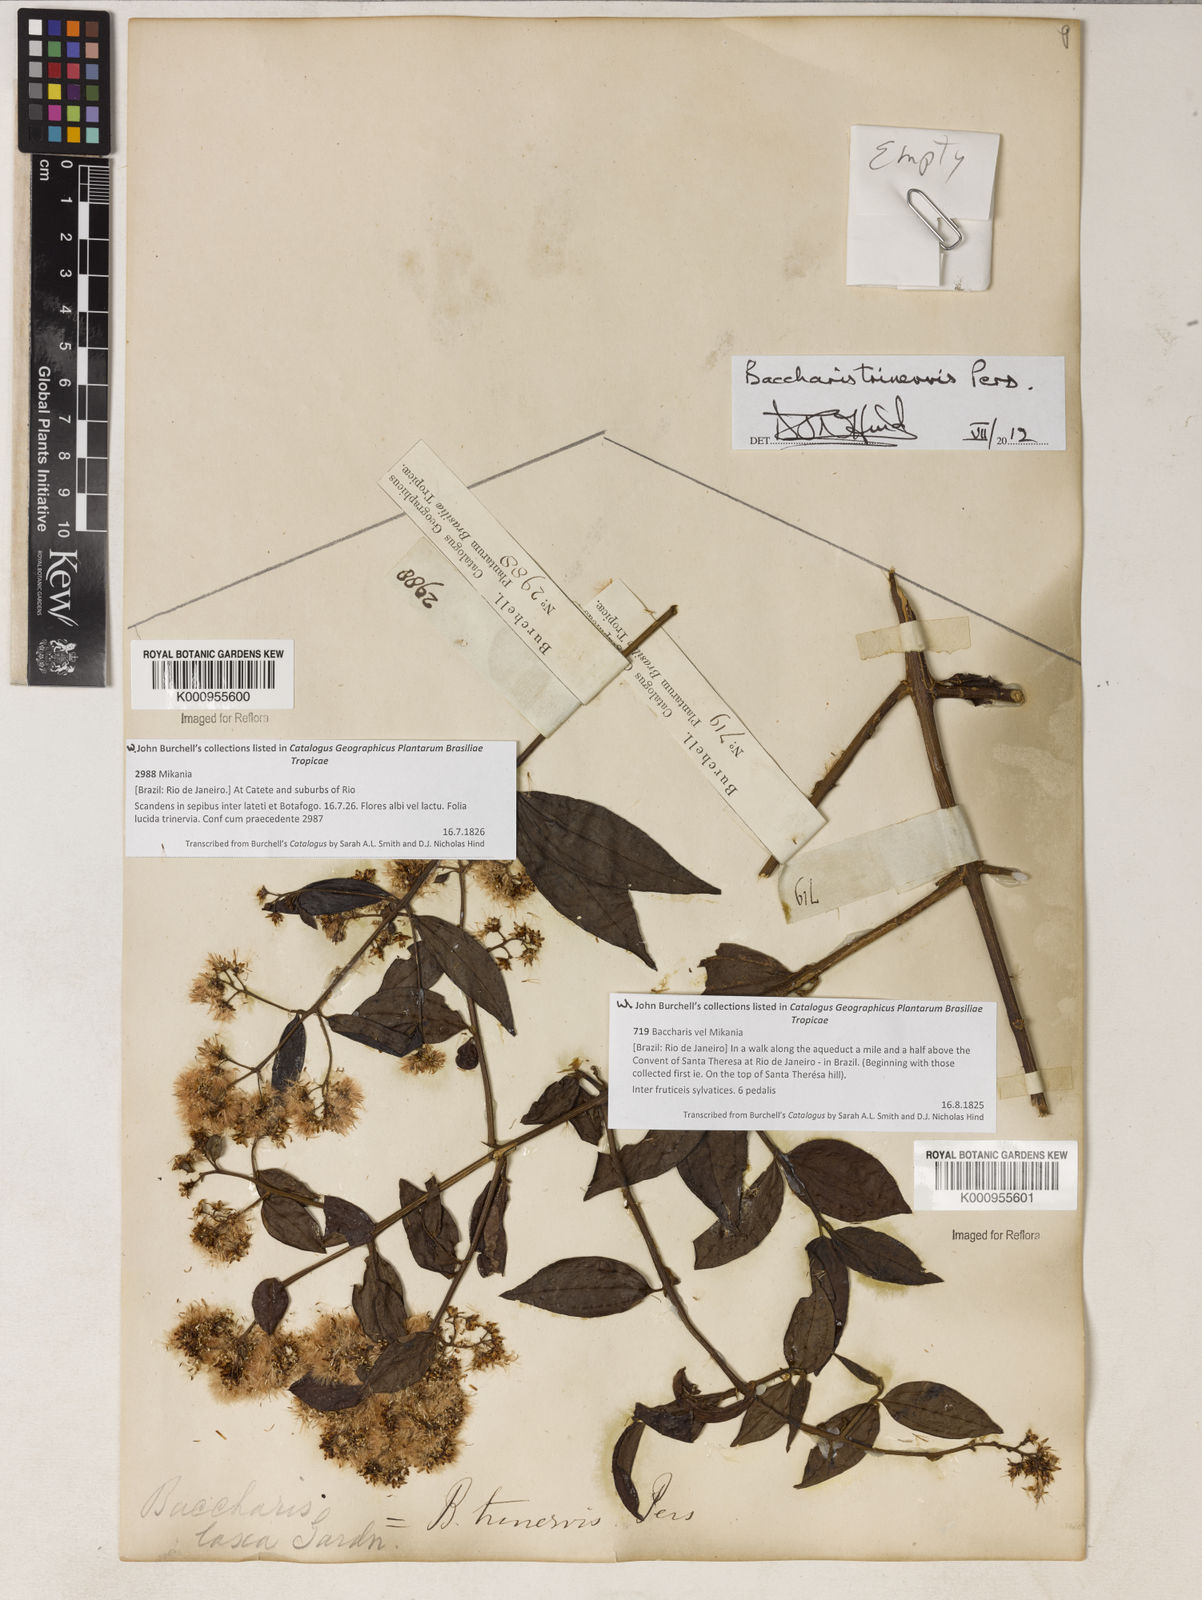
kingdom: Plantae
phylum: Tracheophyta
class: Magnoliopsida
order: Asterales
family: Asteraceae
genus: Baccharis
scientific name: Baccharis trinervis
